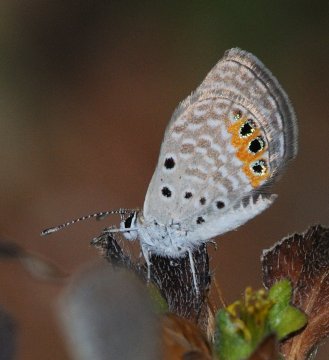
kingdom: Animalia
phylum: Arthropoda
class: Insecta
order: Lepidoptera
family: Lycaenidae
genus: Freyeria
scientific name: Freyeria trochylus
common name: Grass Jewel
